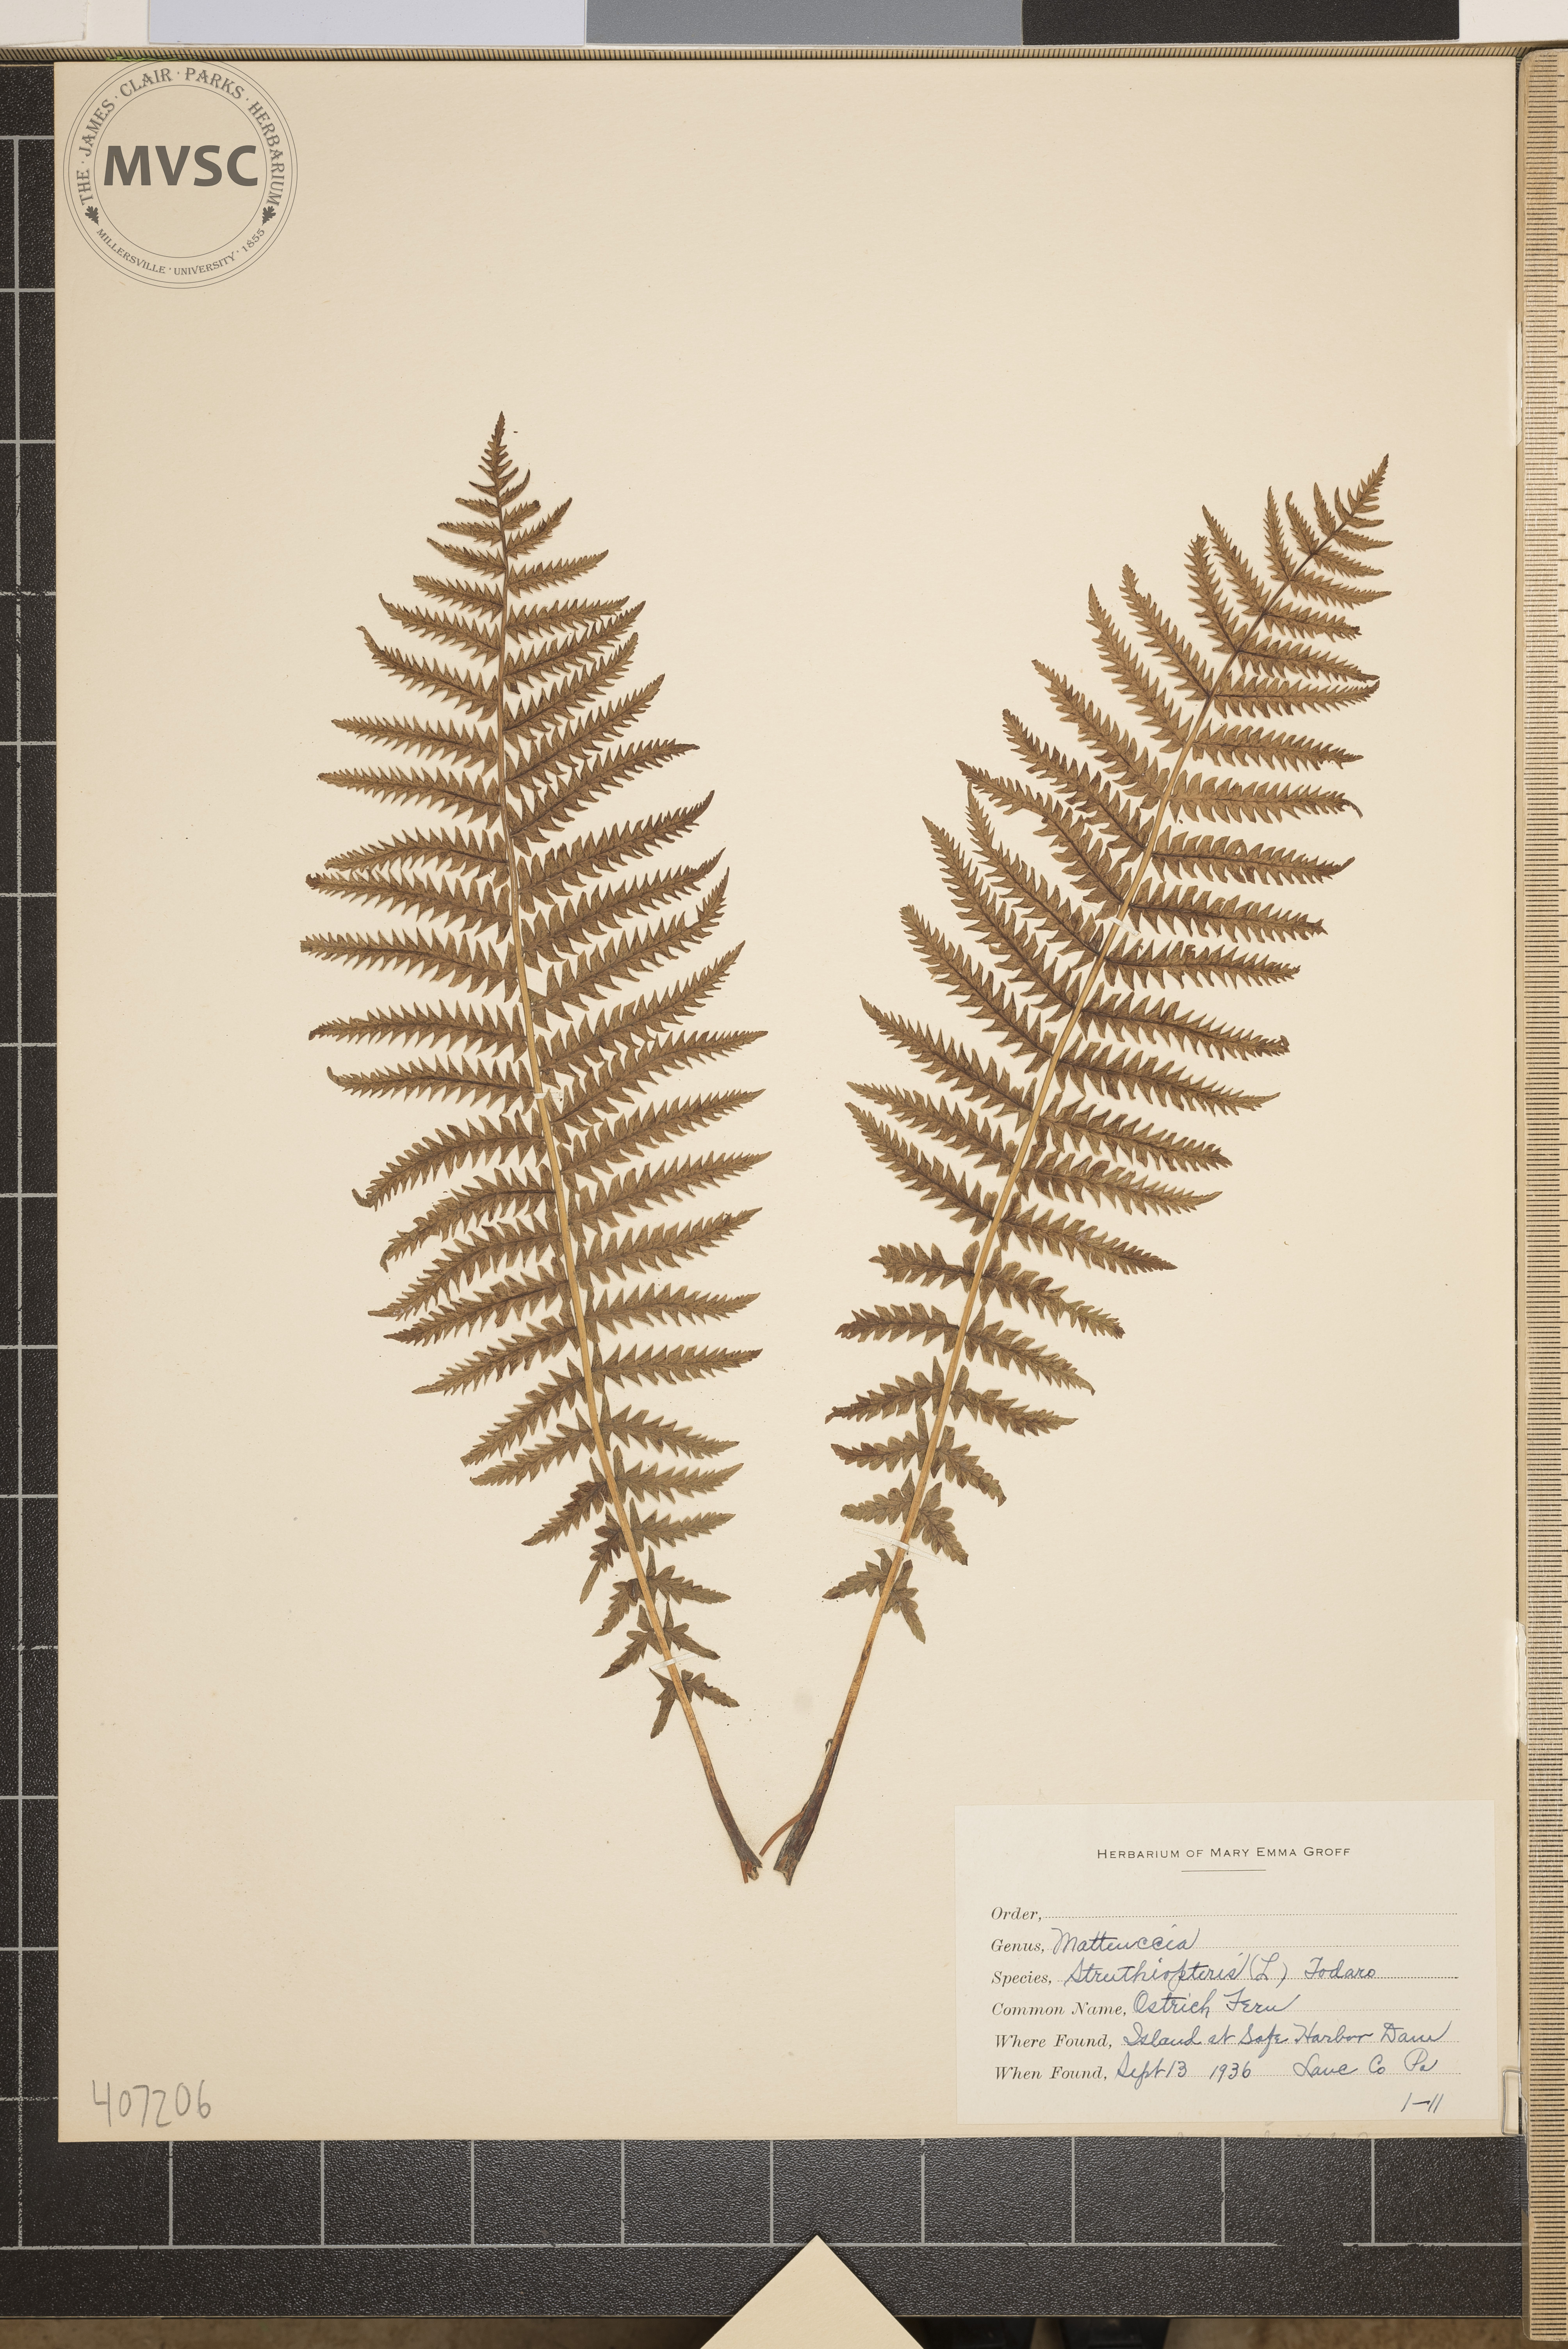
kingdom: Plantae
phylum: Tracheophyta
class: Polypodiopsida
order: Polypodiales
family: Onocleaceae
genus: Matteuccia
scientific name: Matteuccia struthiopteris
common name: Ostrich Fern
